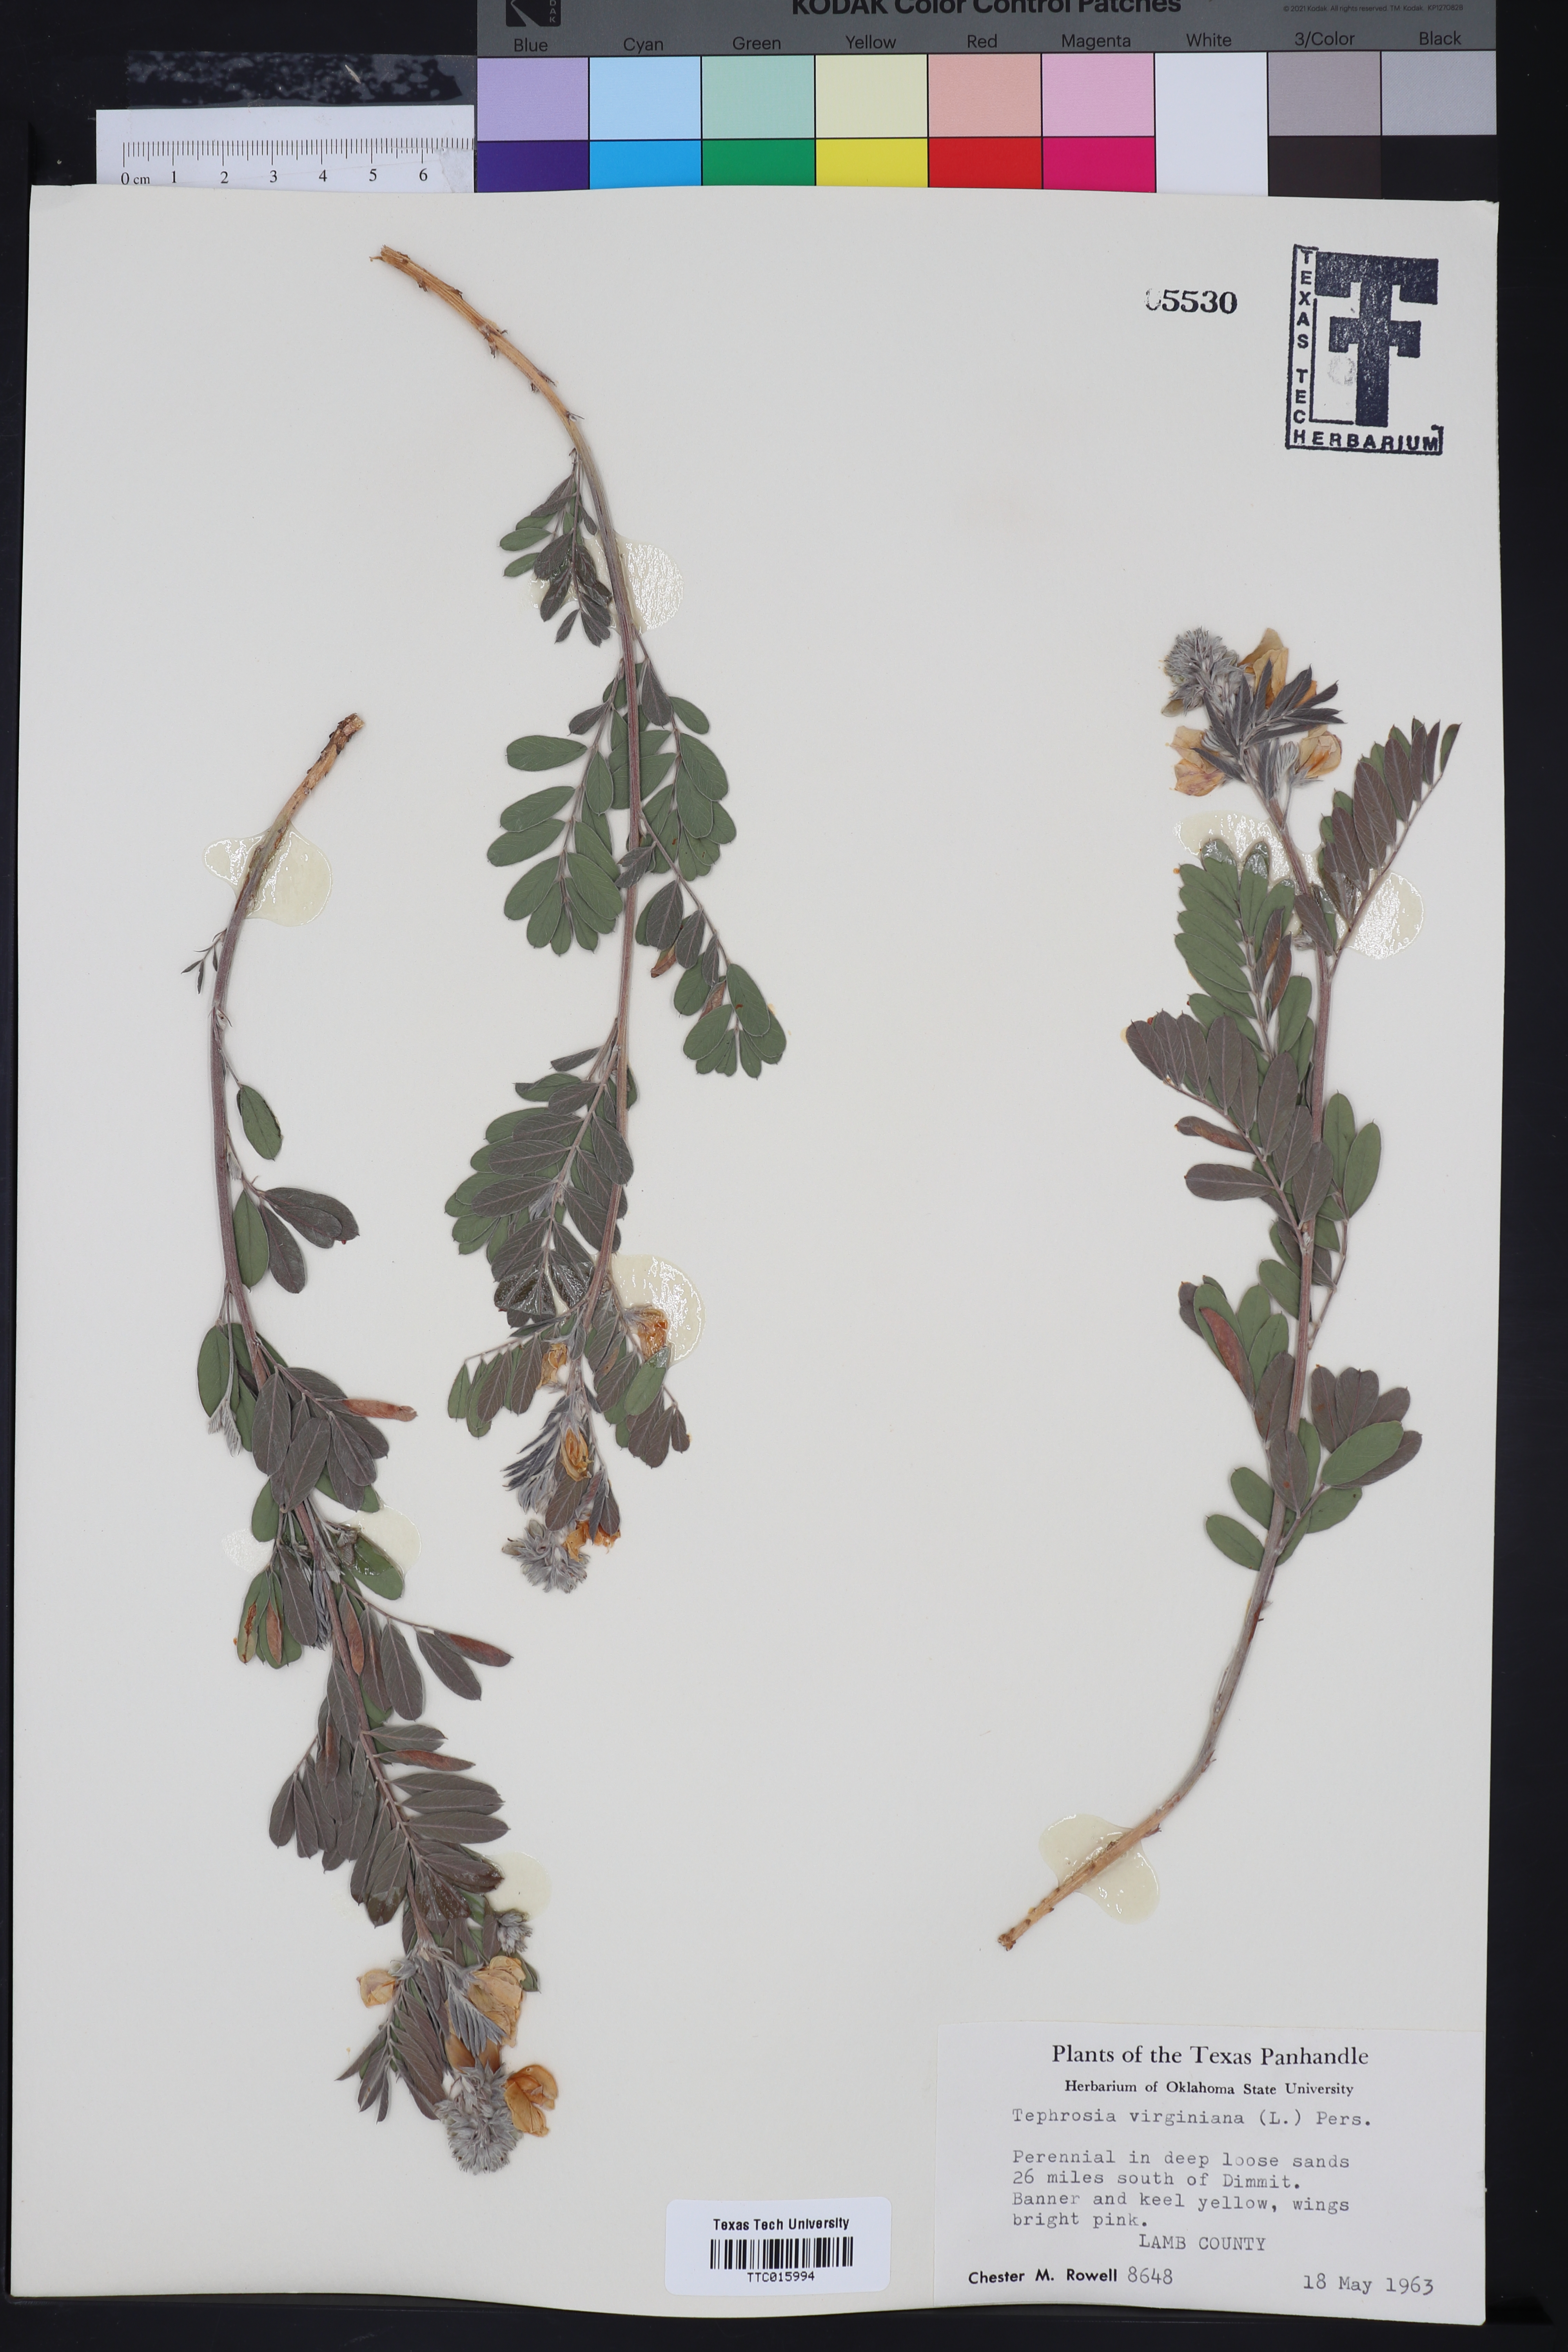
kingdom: Plantae
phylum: Tracheophyta
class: Magnoliopsida
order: Fabales
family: Fabaceae
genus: Tephrosia
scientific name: Tephrosia virginiana
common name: Rabbit-pea
